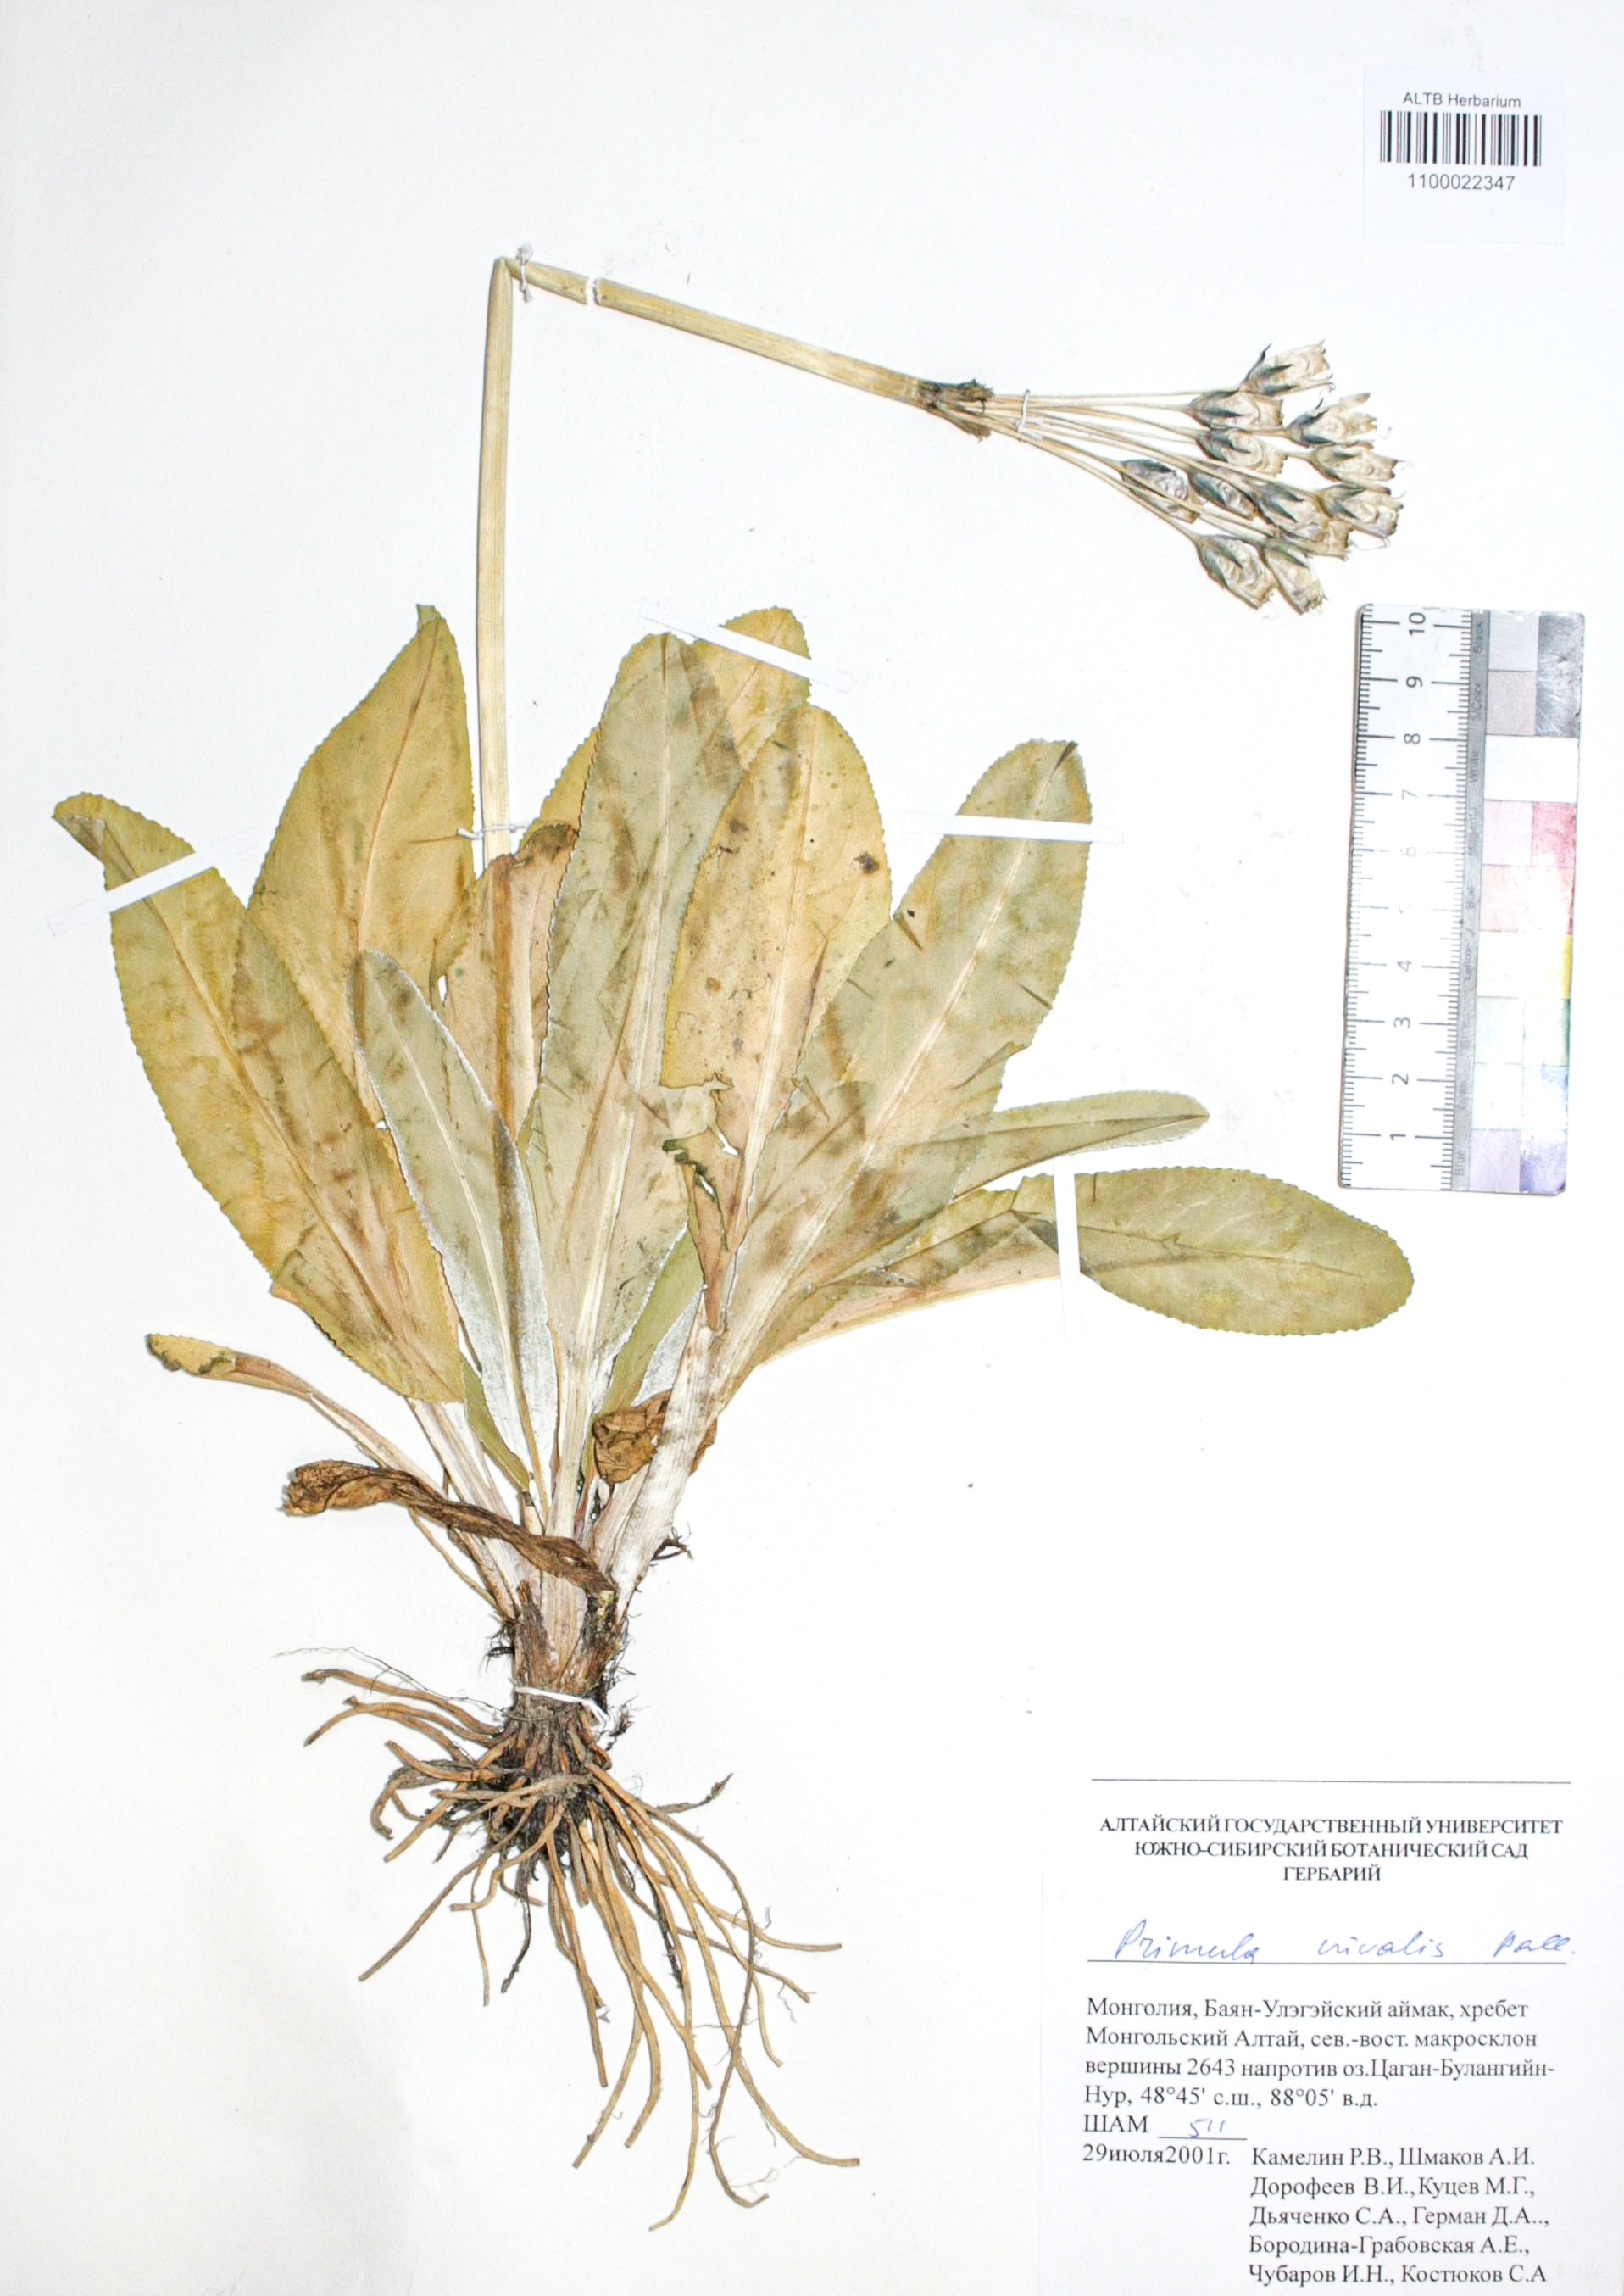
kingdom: Plantae
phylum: Tracheophyta
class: Magnoliopsida
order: Ericales
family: Primulaceae
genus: Primula
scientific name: Primula nivalis
